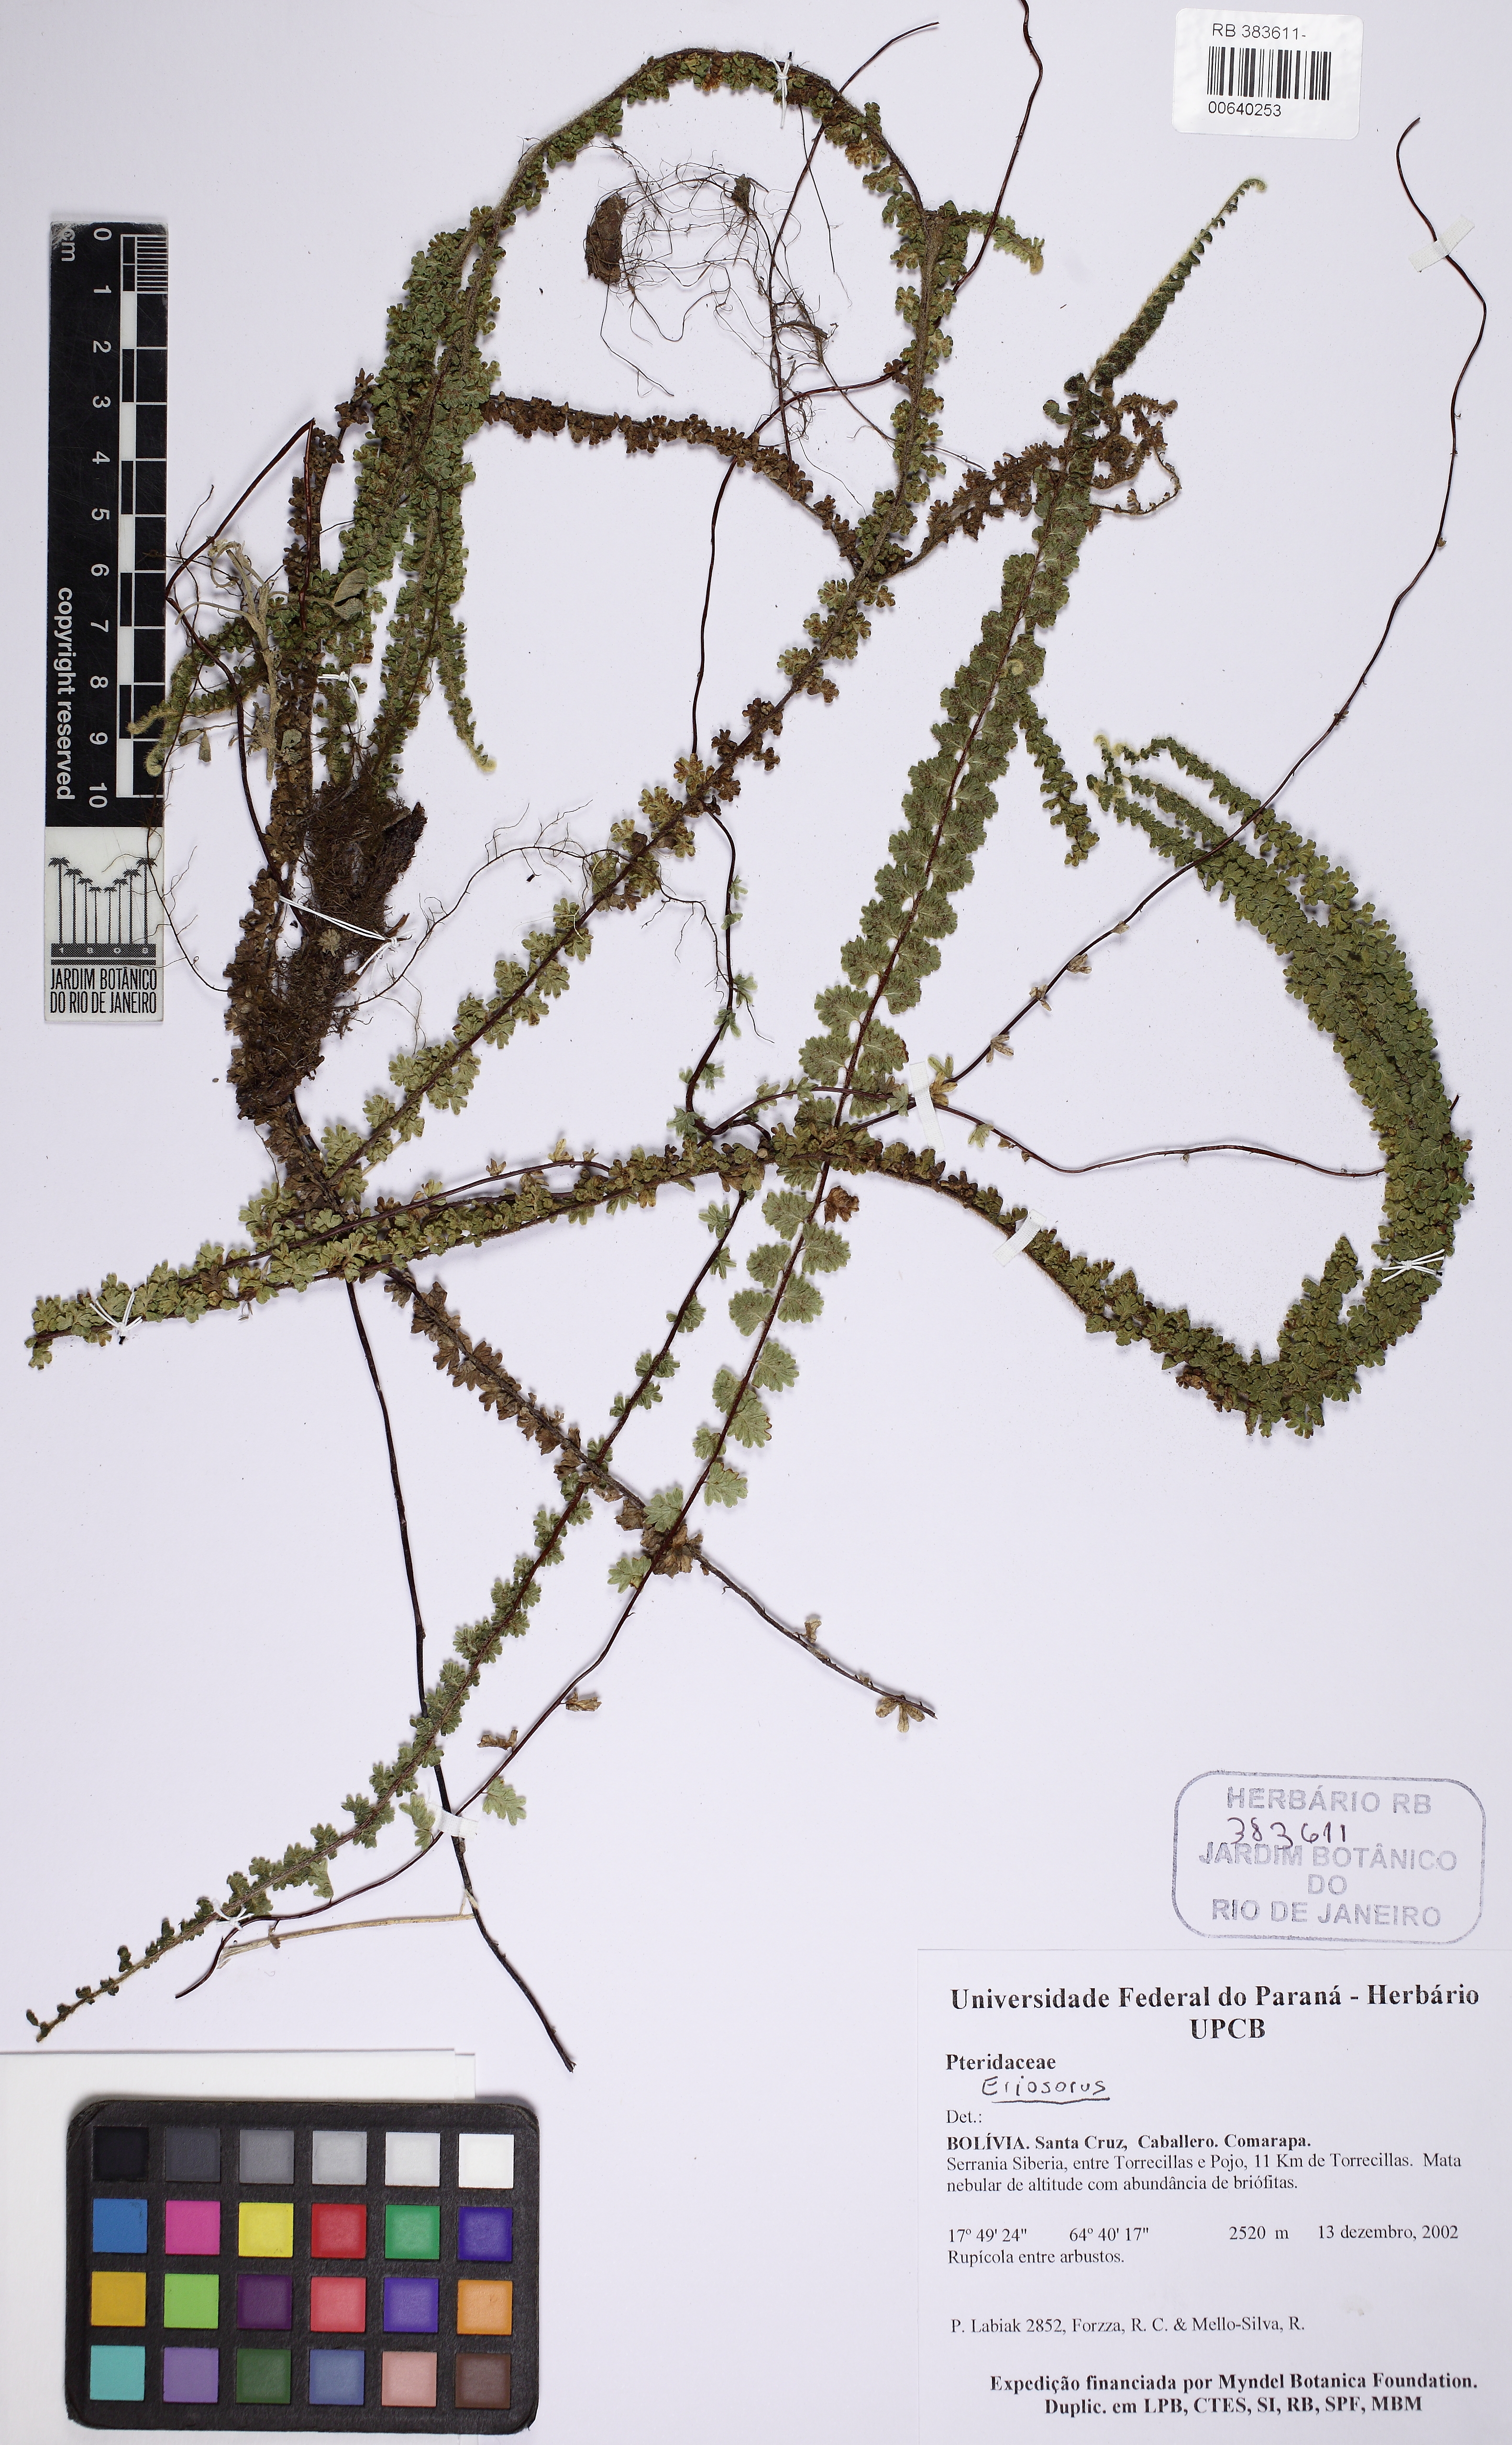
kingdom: Plantae
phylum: Tracheophyta
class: Polypodiopsida
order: Polypodiales
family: Pteridaceae
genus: Jamesonia
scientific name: Jamesonia
